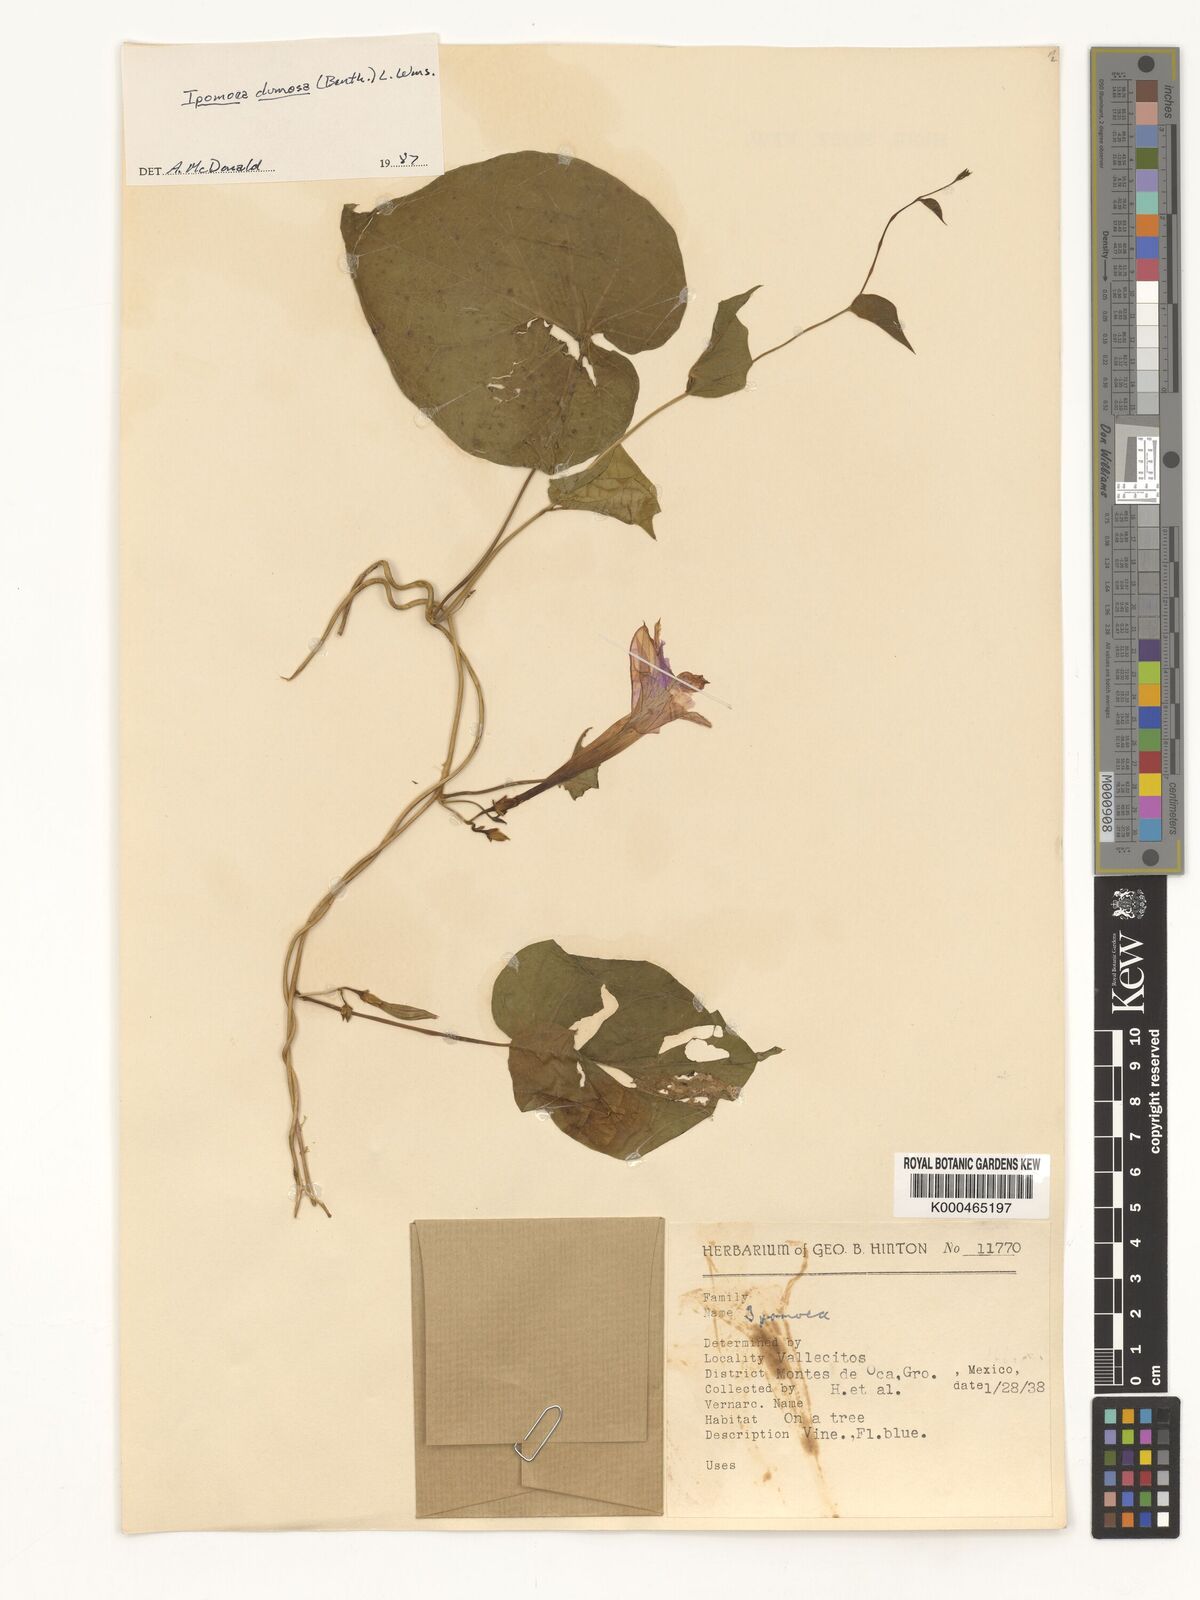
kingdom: Plantae
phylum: Tracheophyta
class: Magnoliopsida
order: Solanales
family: Convolvulaceae
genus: Ipomoea
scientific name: Ipomoea dumosa
